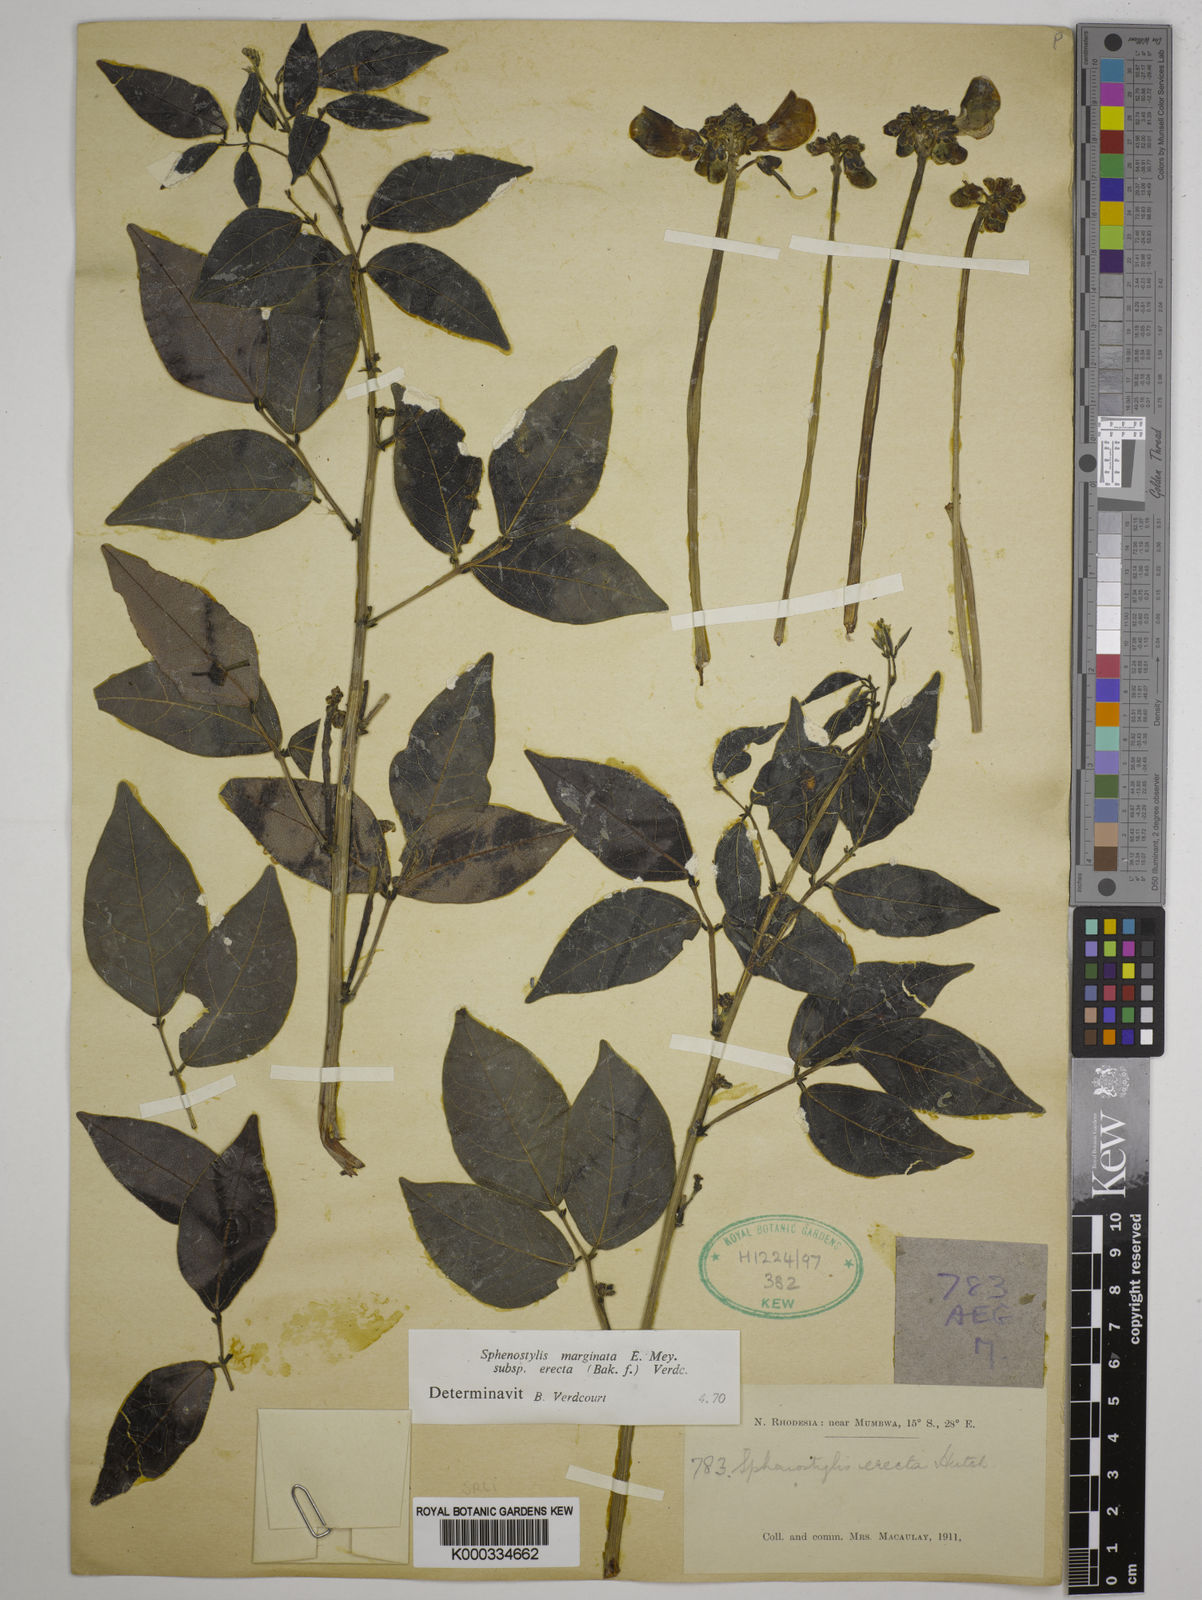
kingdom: Plantae
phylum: Tracheophyta
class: Magnoliopsida
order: Fabales
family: Fabaceae
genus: Sphenostylis
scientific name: Sphenostylis erecta
